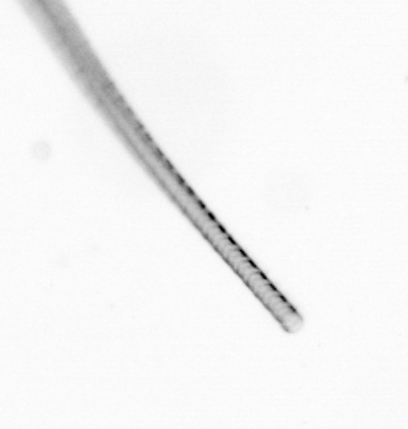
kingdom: Chromista
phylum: Ochrophyta
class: Bacillariophyceae
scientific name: Bacillariophyceae
